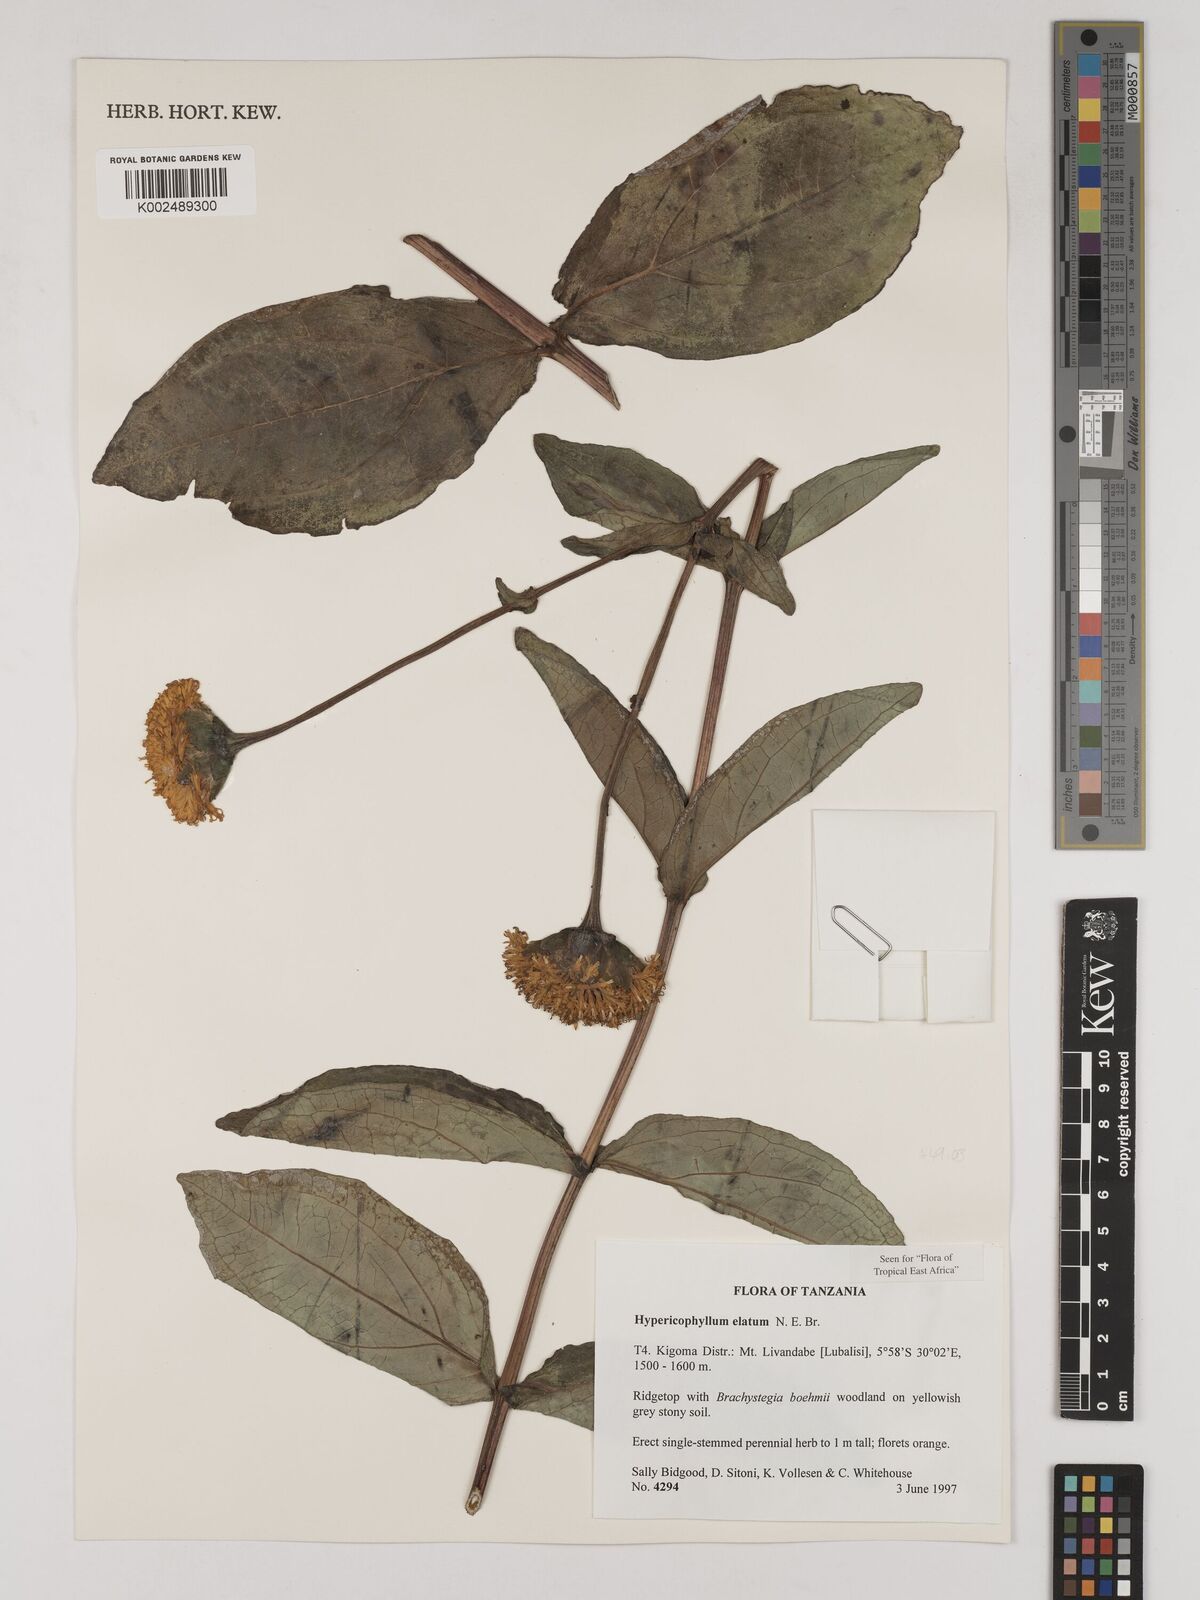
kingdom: Plantae
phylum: Tracheophyta
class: Magnoliopsida
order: Asterales
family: Asteraceae
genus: Hypericophyllum
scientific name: Hypericophyllum elatum
